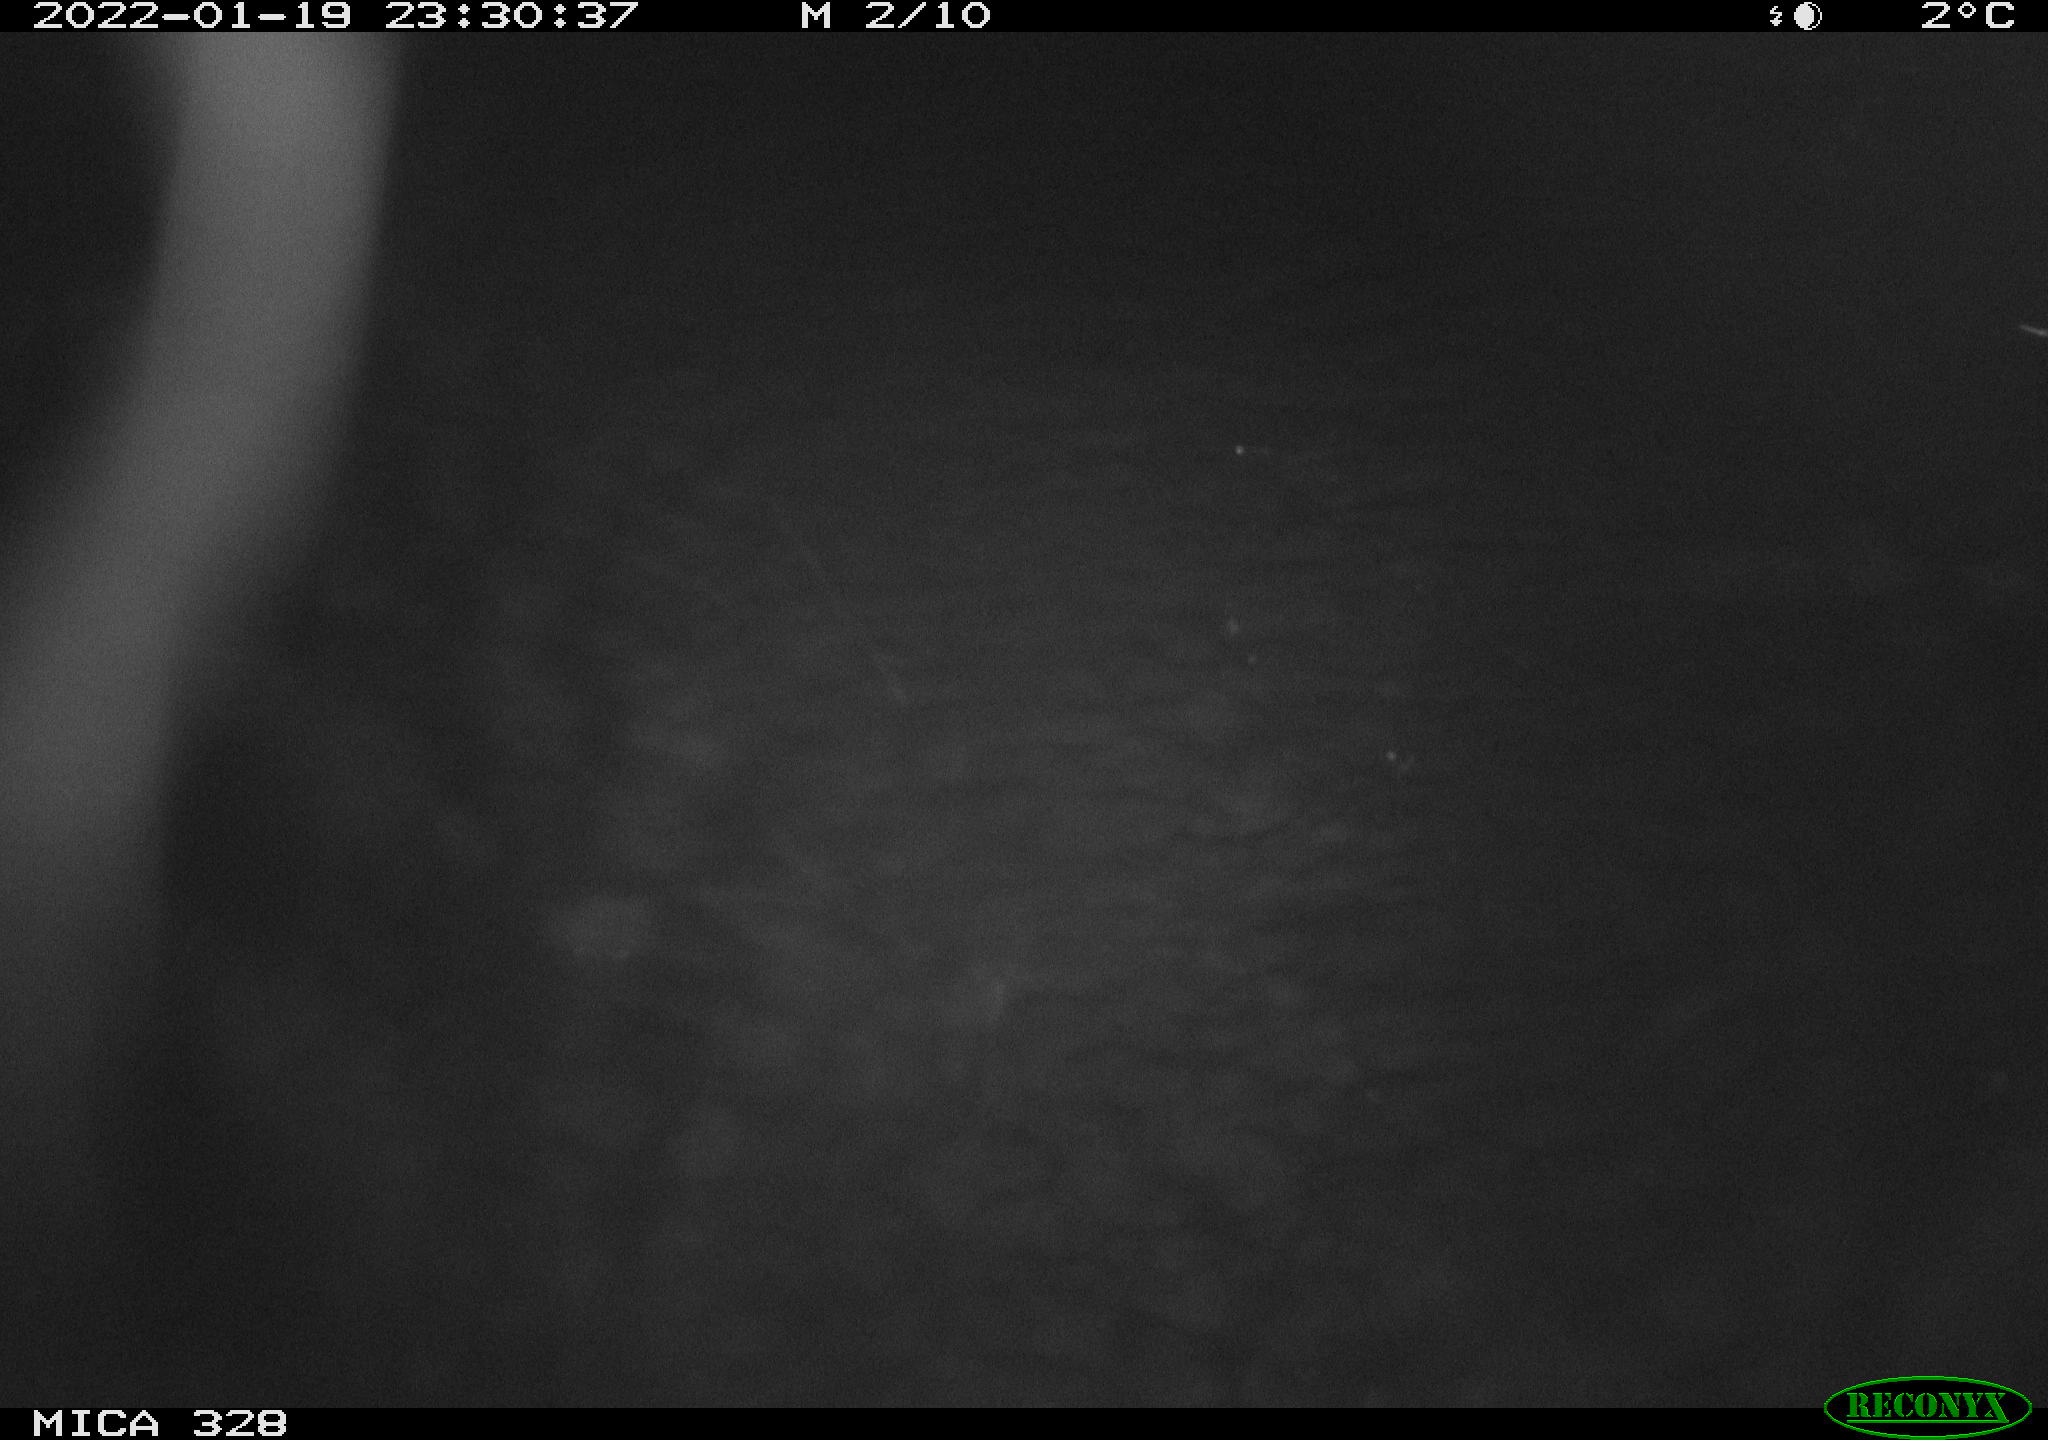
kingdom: Animalia
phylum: Chordata
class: Mammalia
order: Rodentia
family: Cricetidae
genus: Ondatra
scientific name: Ondatra zibethicus
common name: Muskrat
